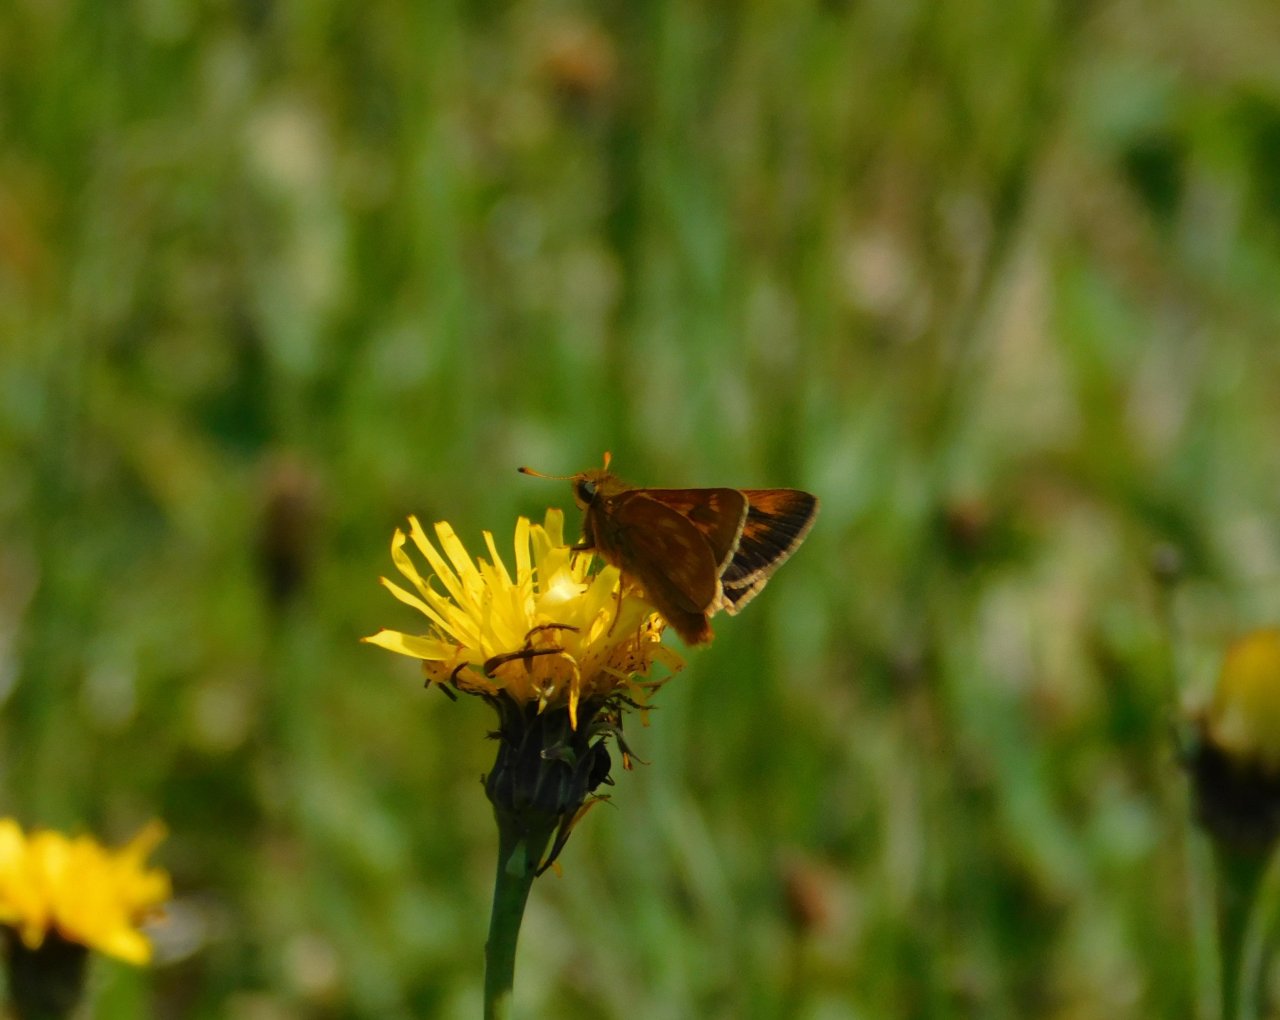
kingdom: Animalia
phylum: Arthropoda
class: Insecta
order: Lepidoptera
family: Hesperiidae
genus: Polites
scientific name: Polites
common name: Long Dash Skipper
